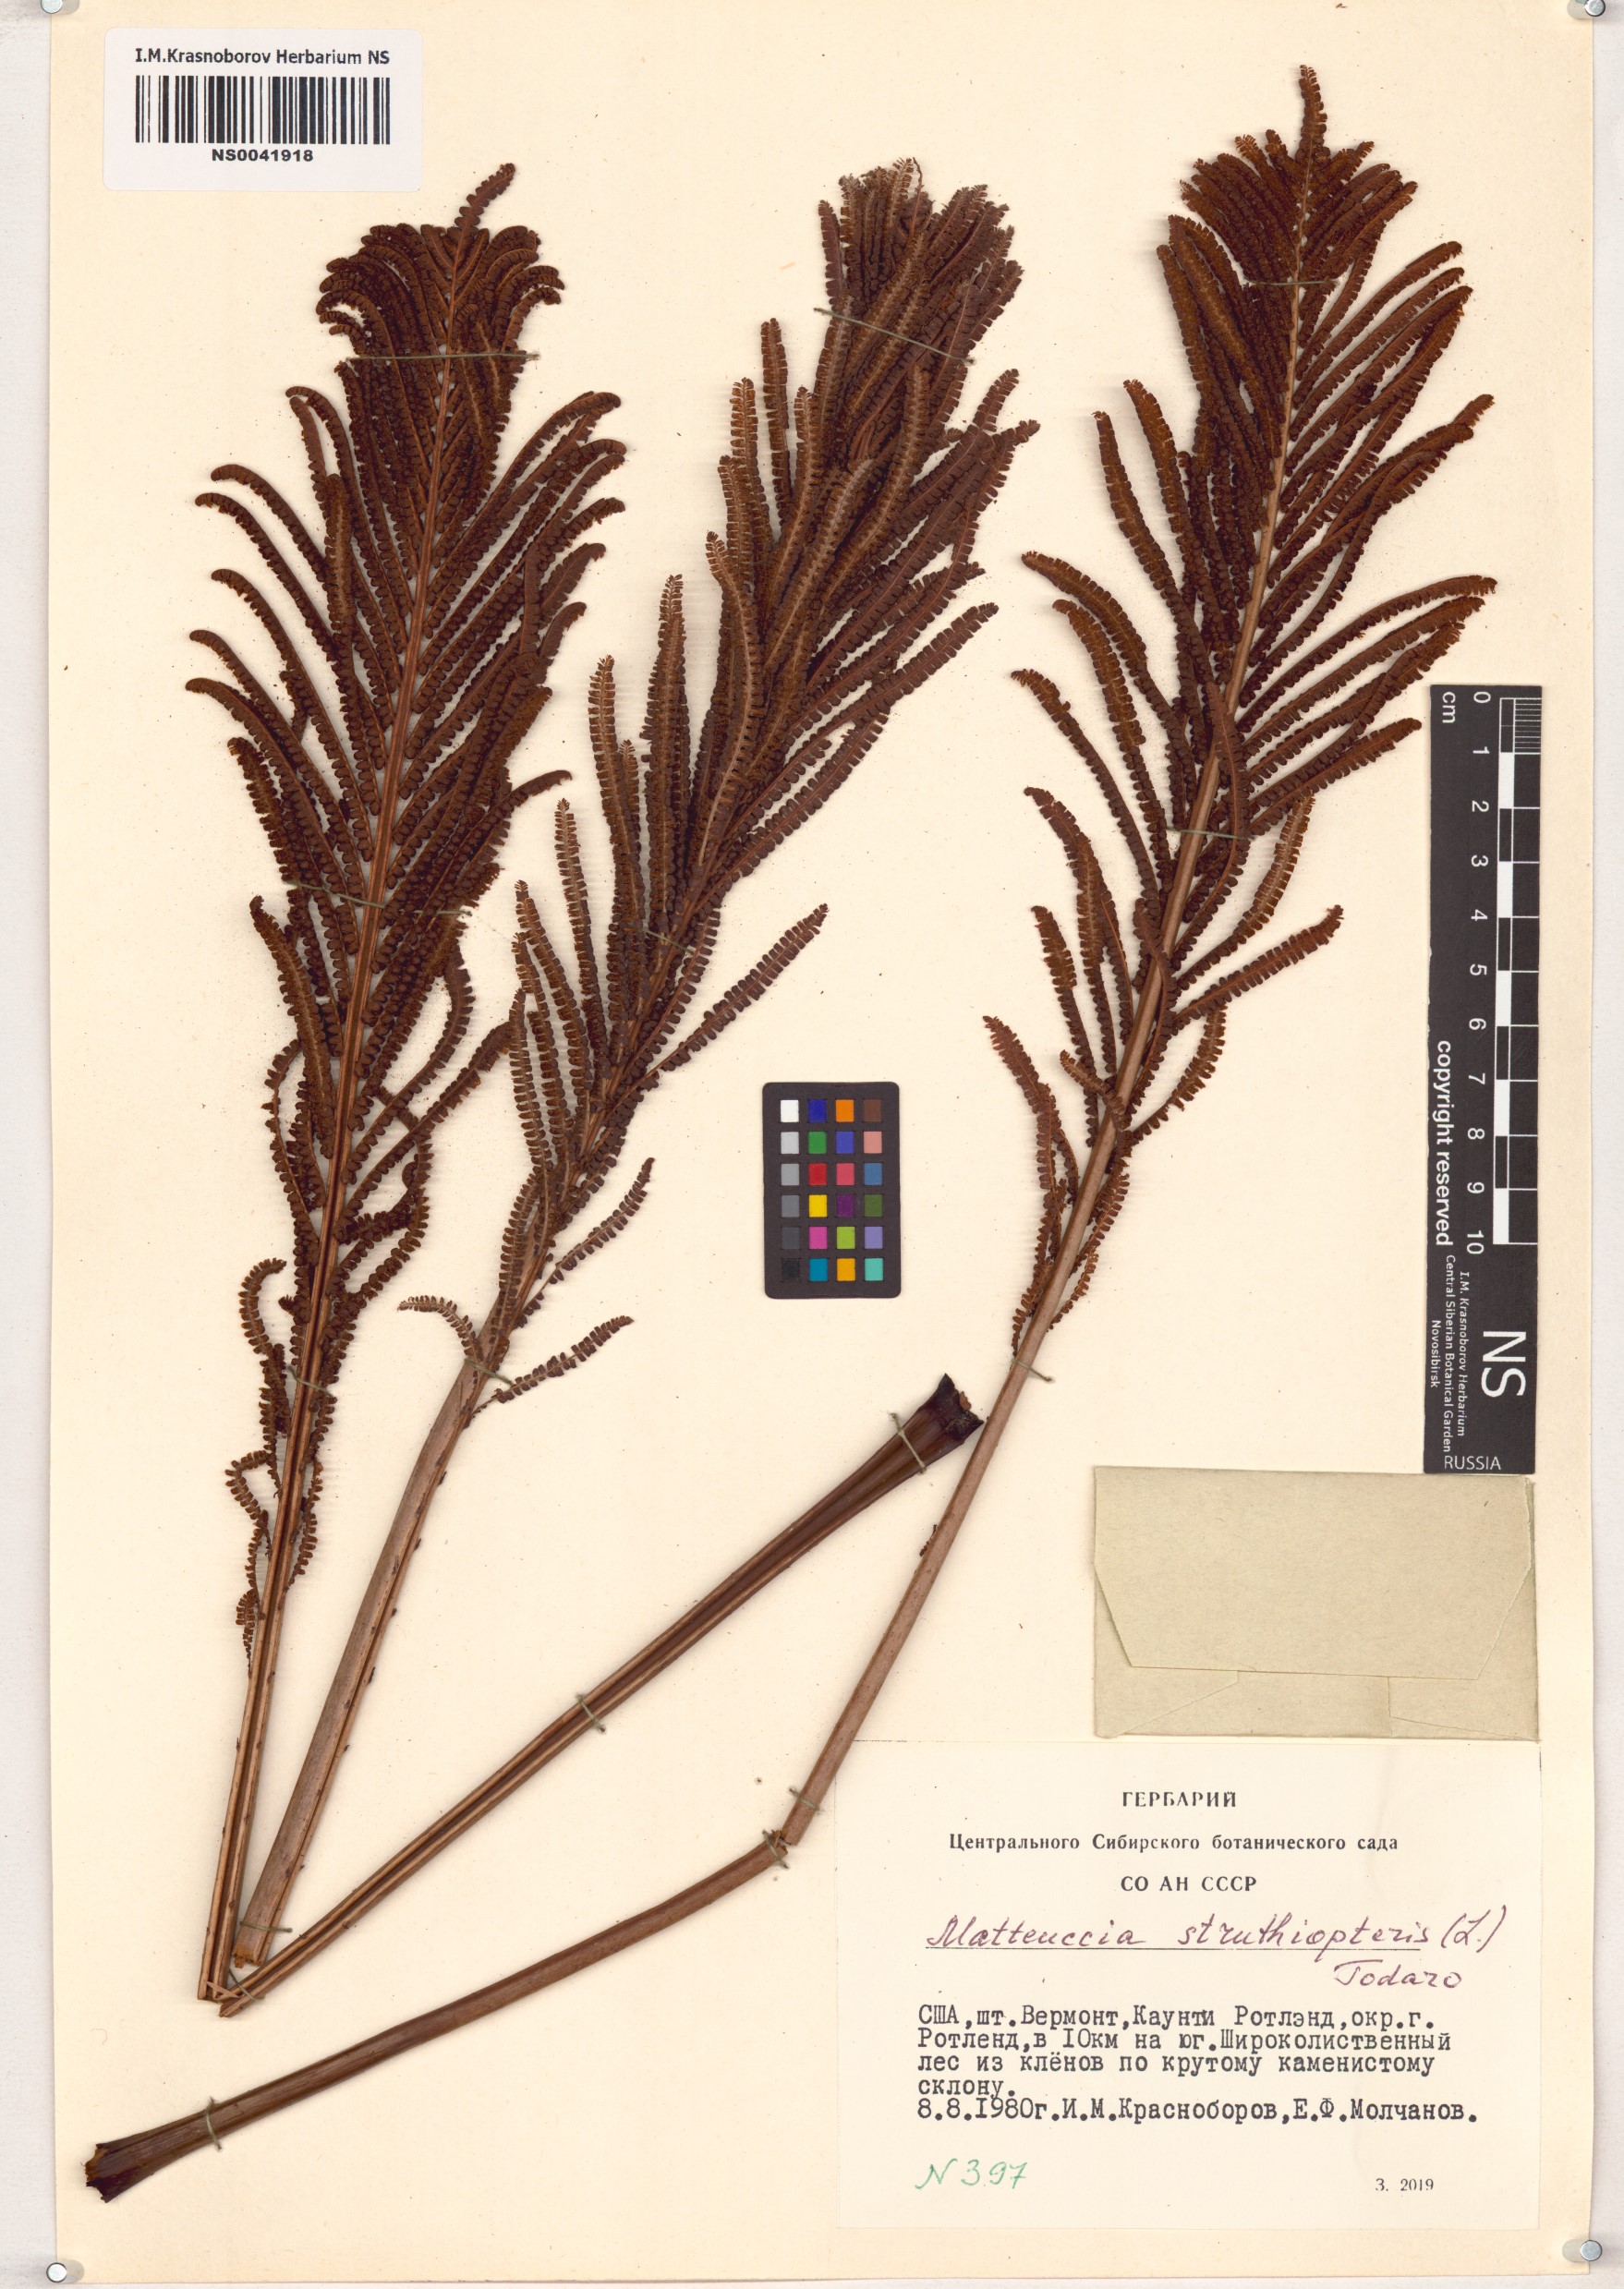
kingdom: Plantae
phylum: Tracheophyta
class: Polypodiopsida
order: Polypodiales
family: Onocleaceae
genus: Matteuccia
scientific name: Matteuccia struthiopteris
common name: Ostrich fern
